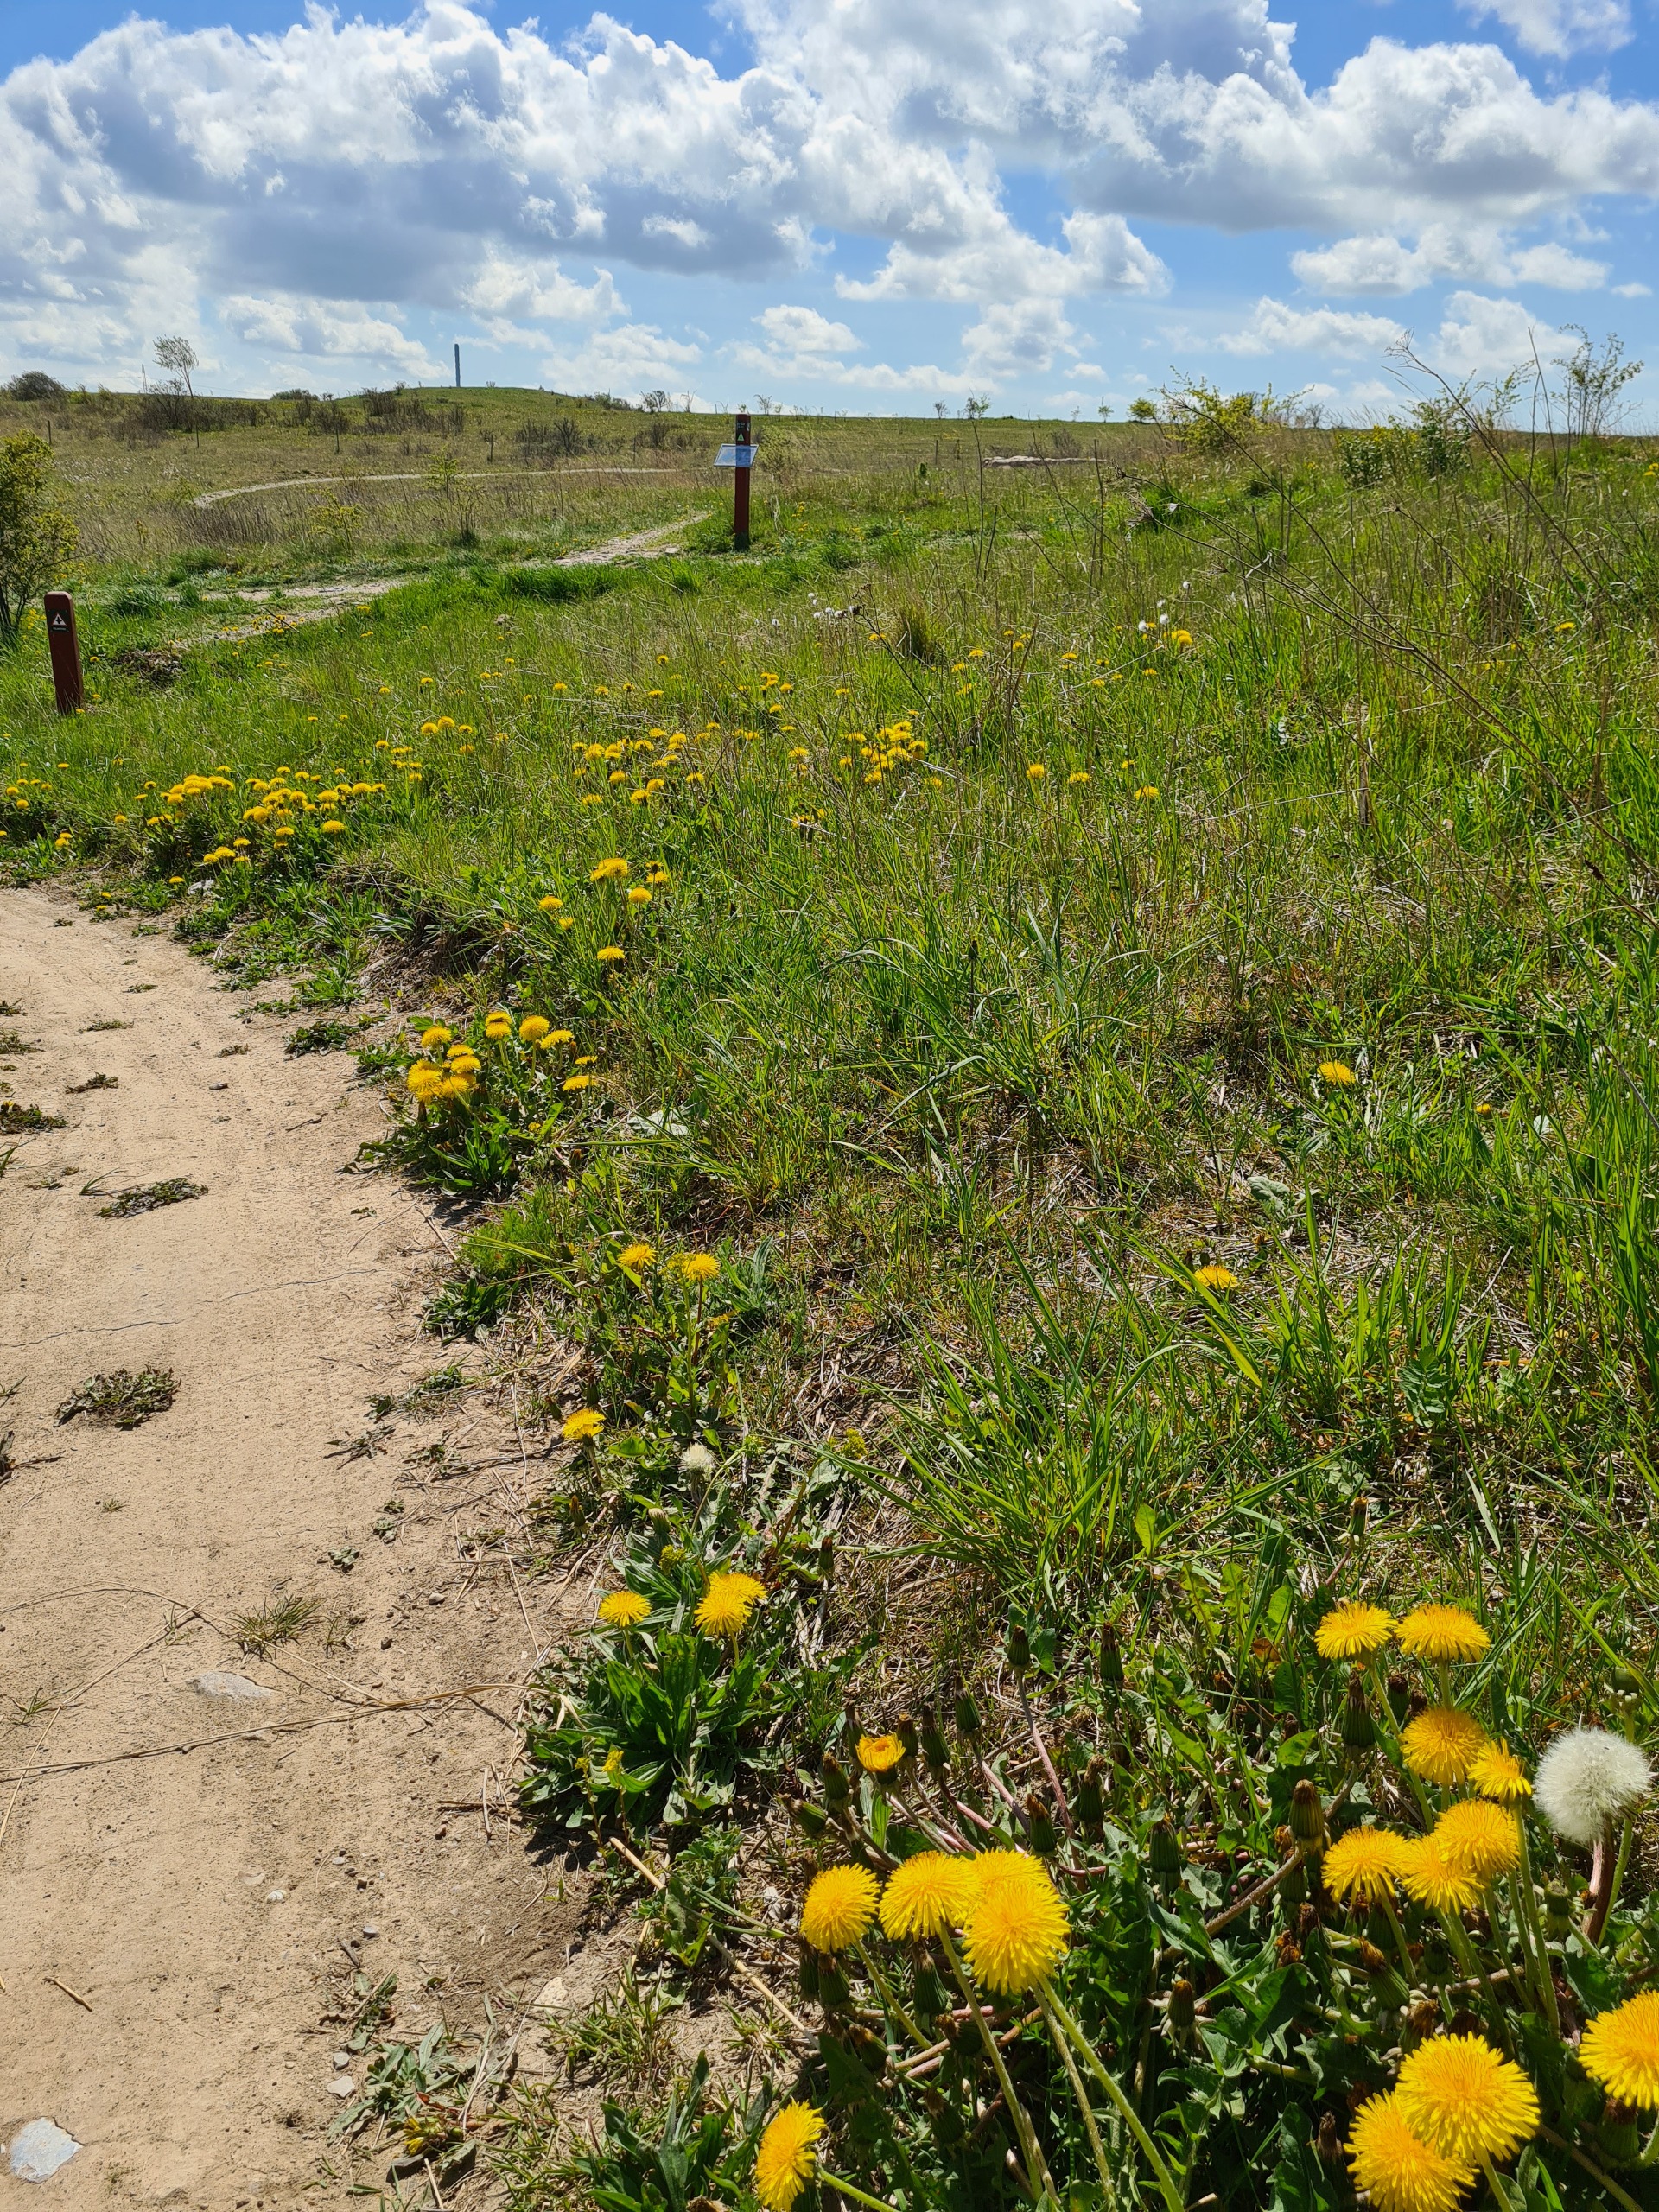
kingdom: Plantae
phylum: Tracheophyta
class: Magnoliopsida
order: Asterales
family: Asteraceae
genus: Taraxacum
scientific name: Taraxacum
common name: Mælkebøtteslægten
